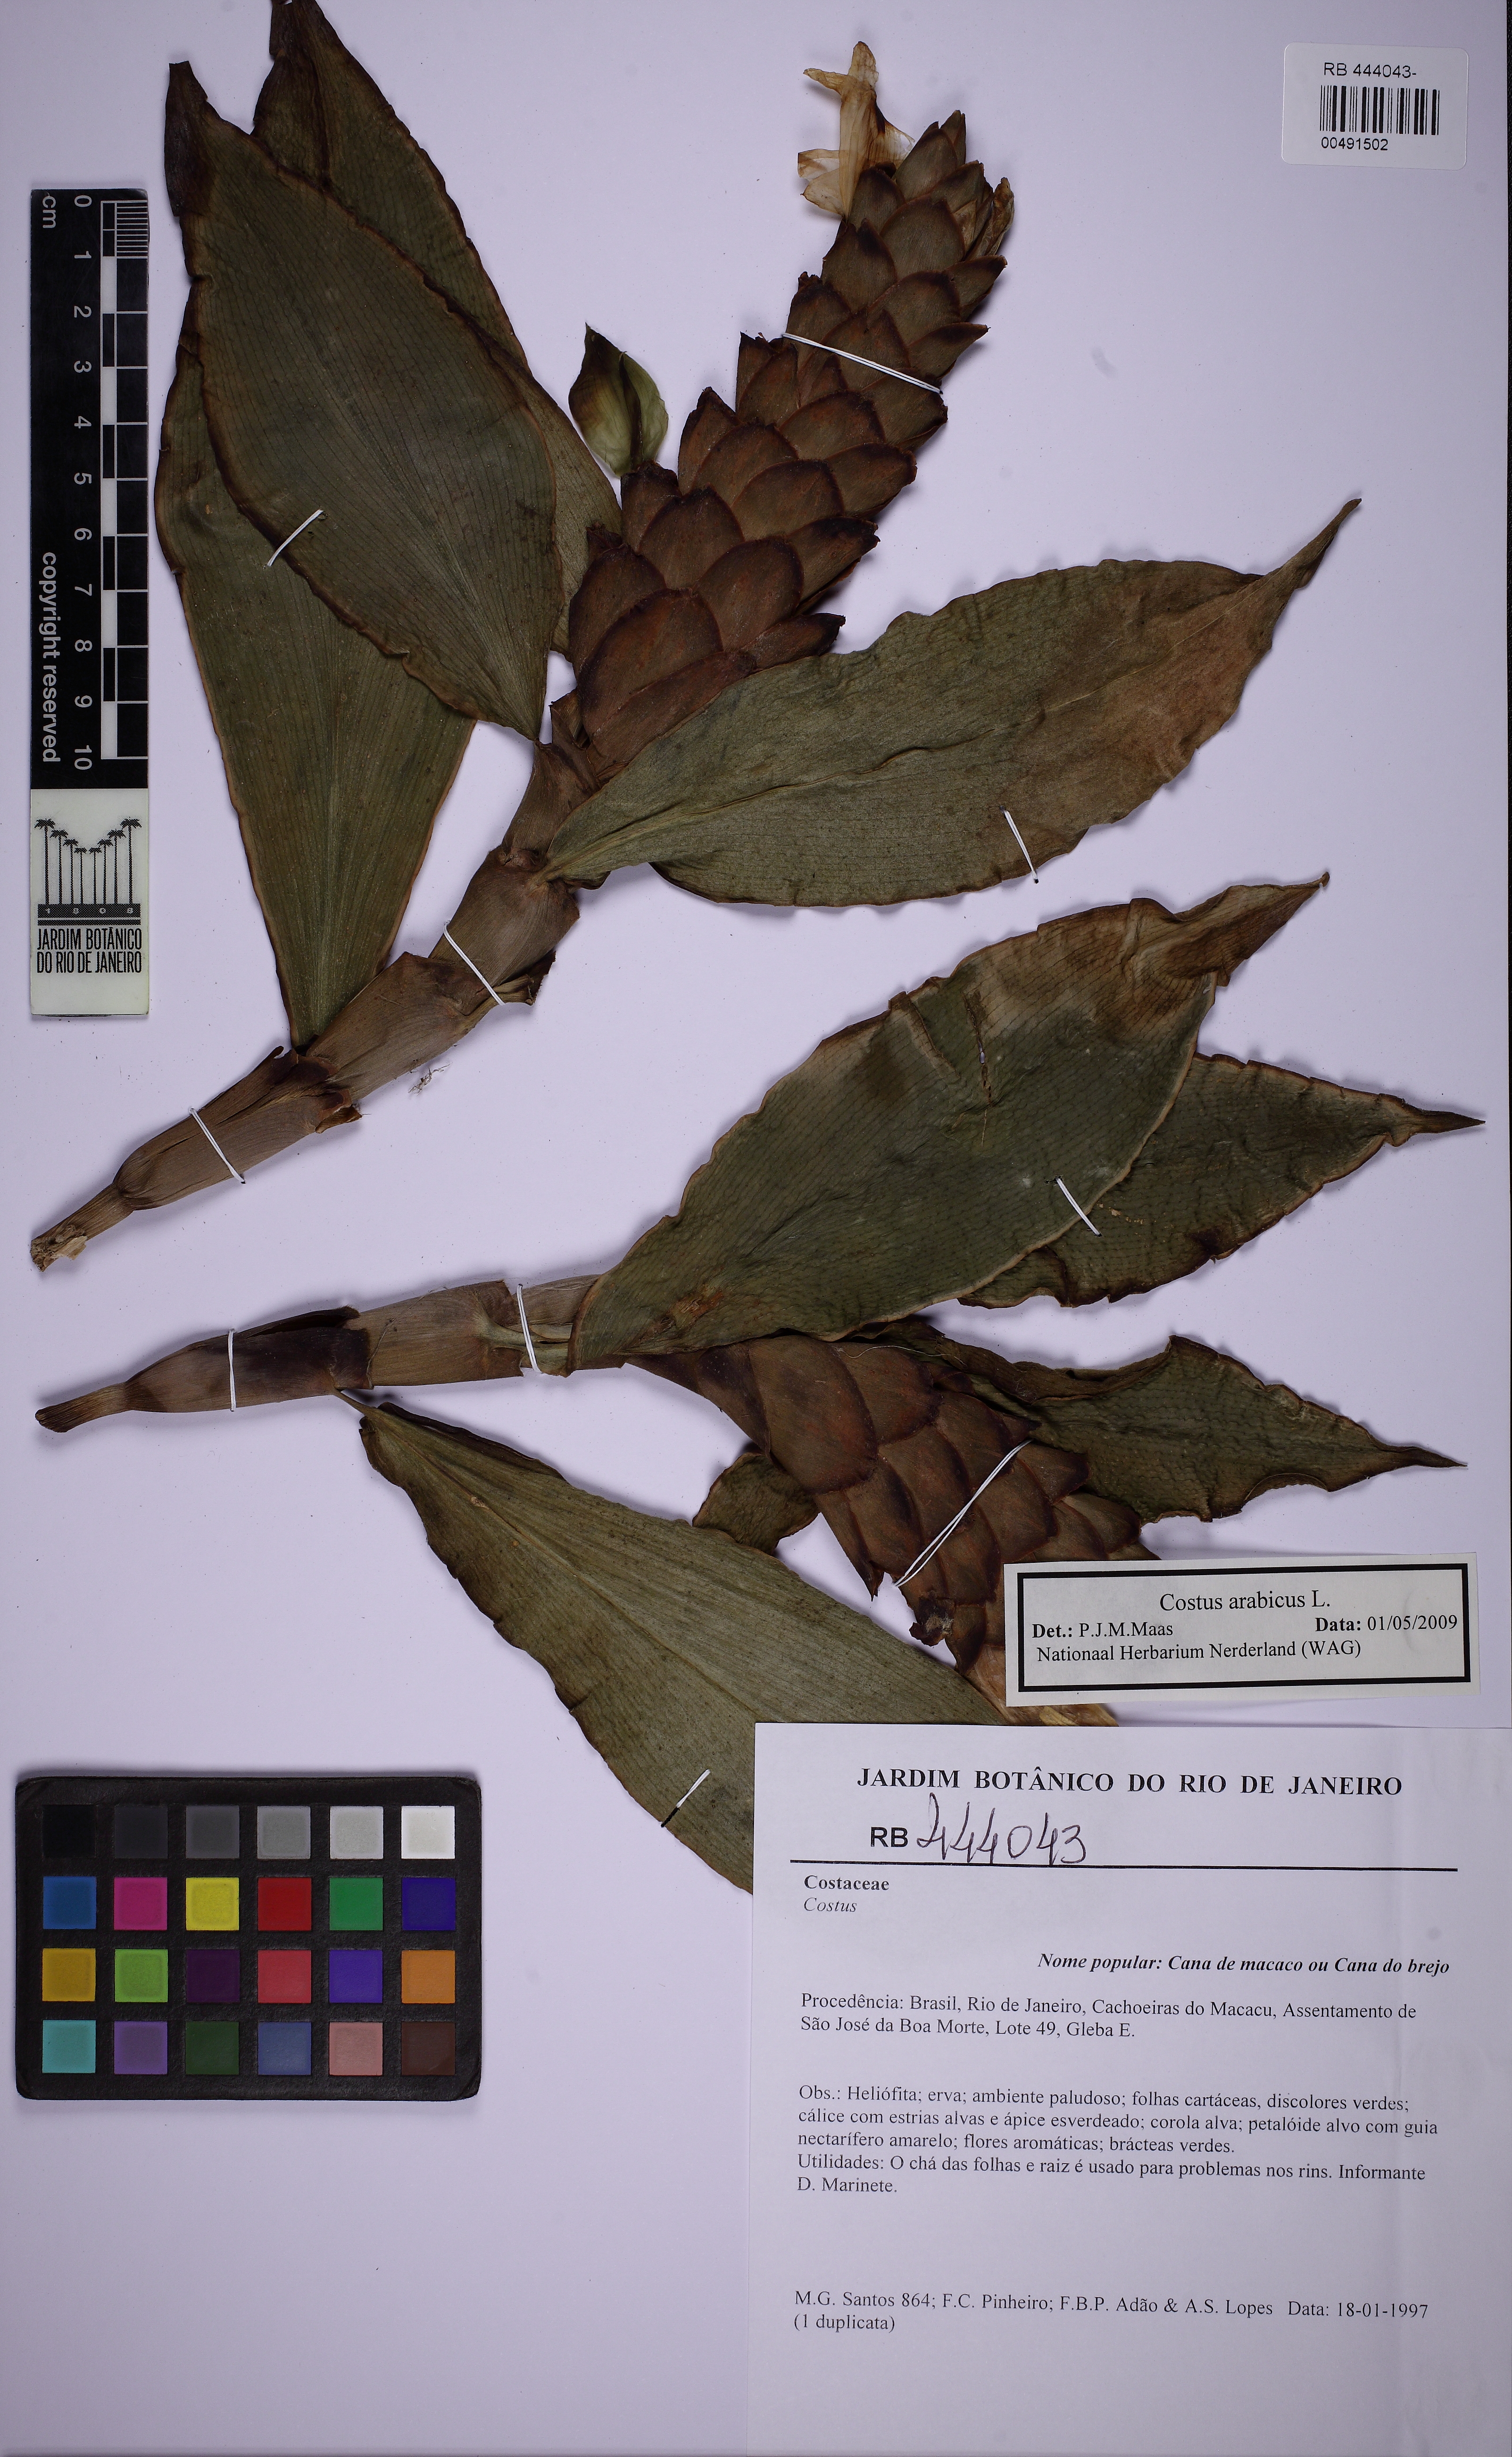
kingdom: Plantae
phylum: Tracheophyta
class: Liliopsida
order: Zingiberales
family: Costaceae
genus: Costus
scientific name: Costus arabicus
